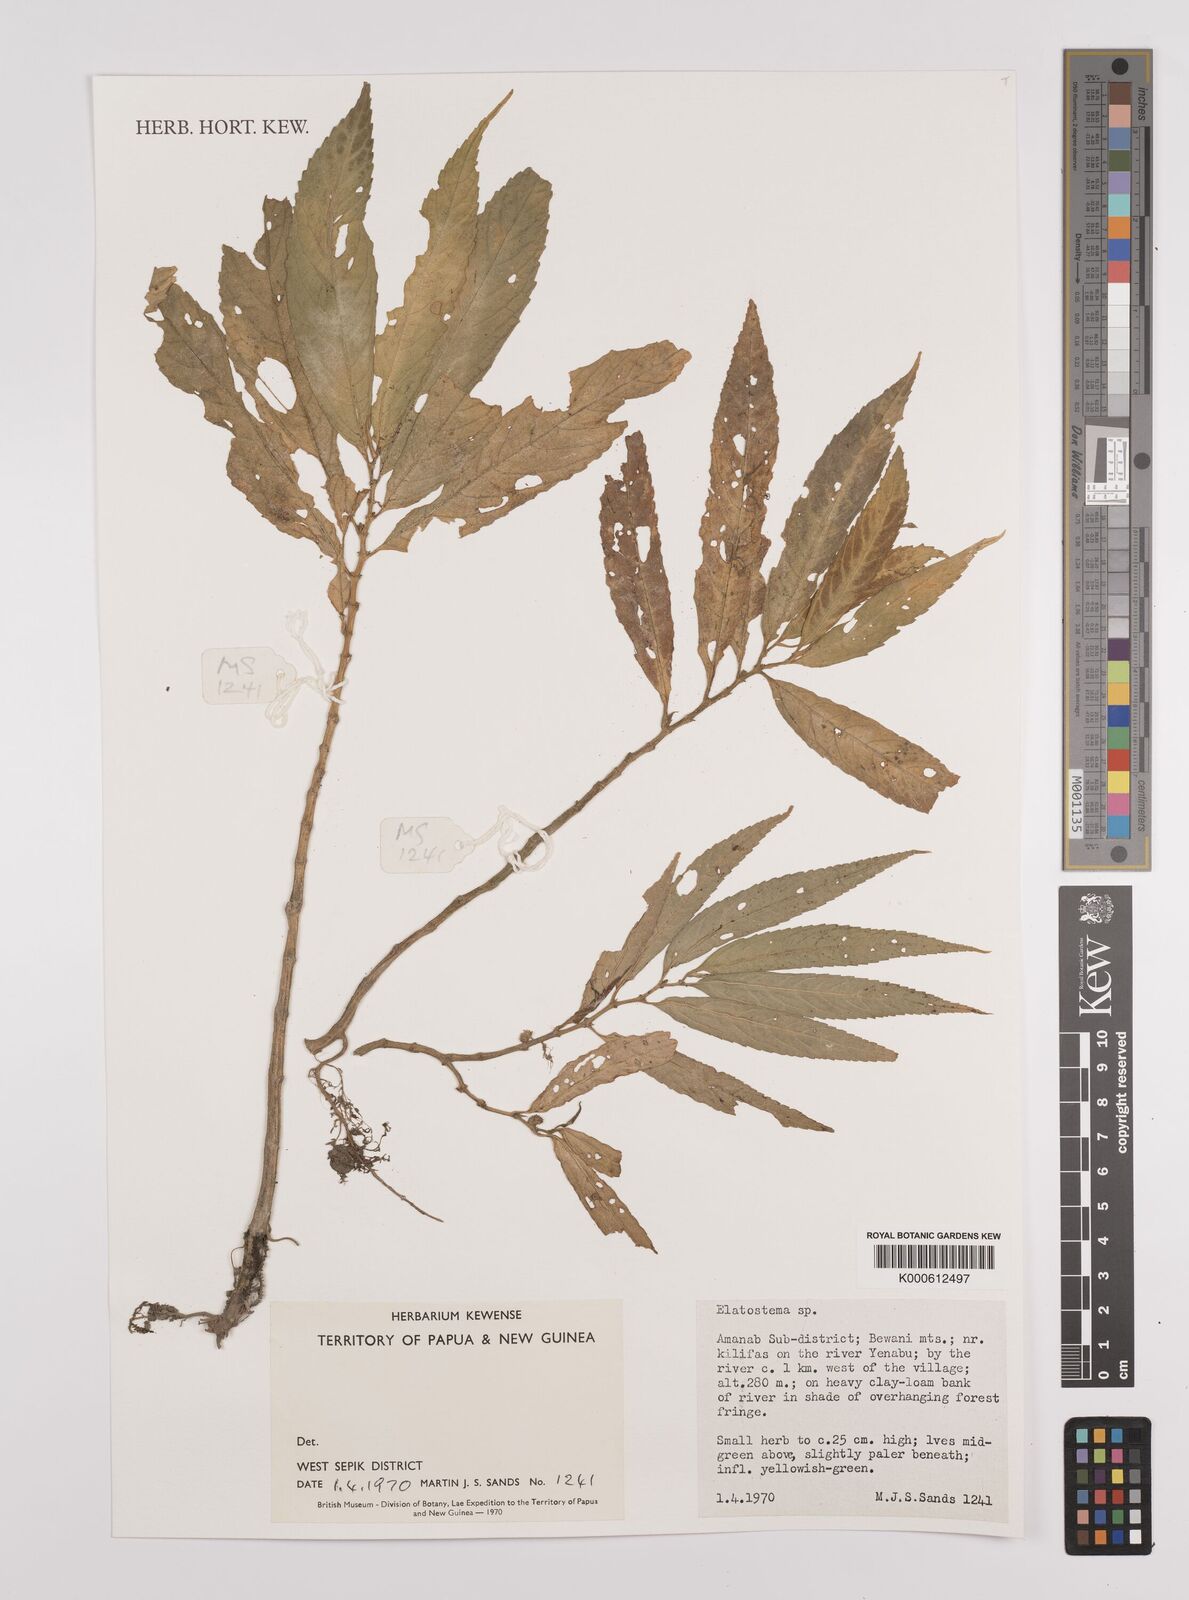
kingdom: Plantae
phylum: Tracheophyta
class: Magnoliopsida
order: Rosales
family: Urticaceae
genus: Elatostema
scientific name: Elatostema
